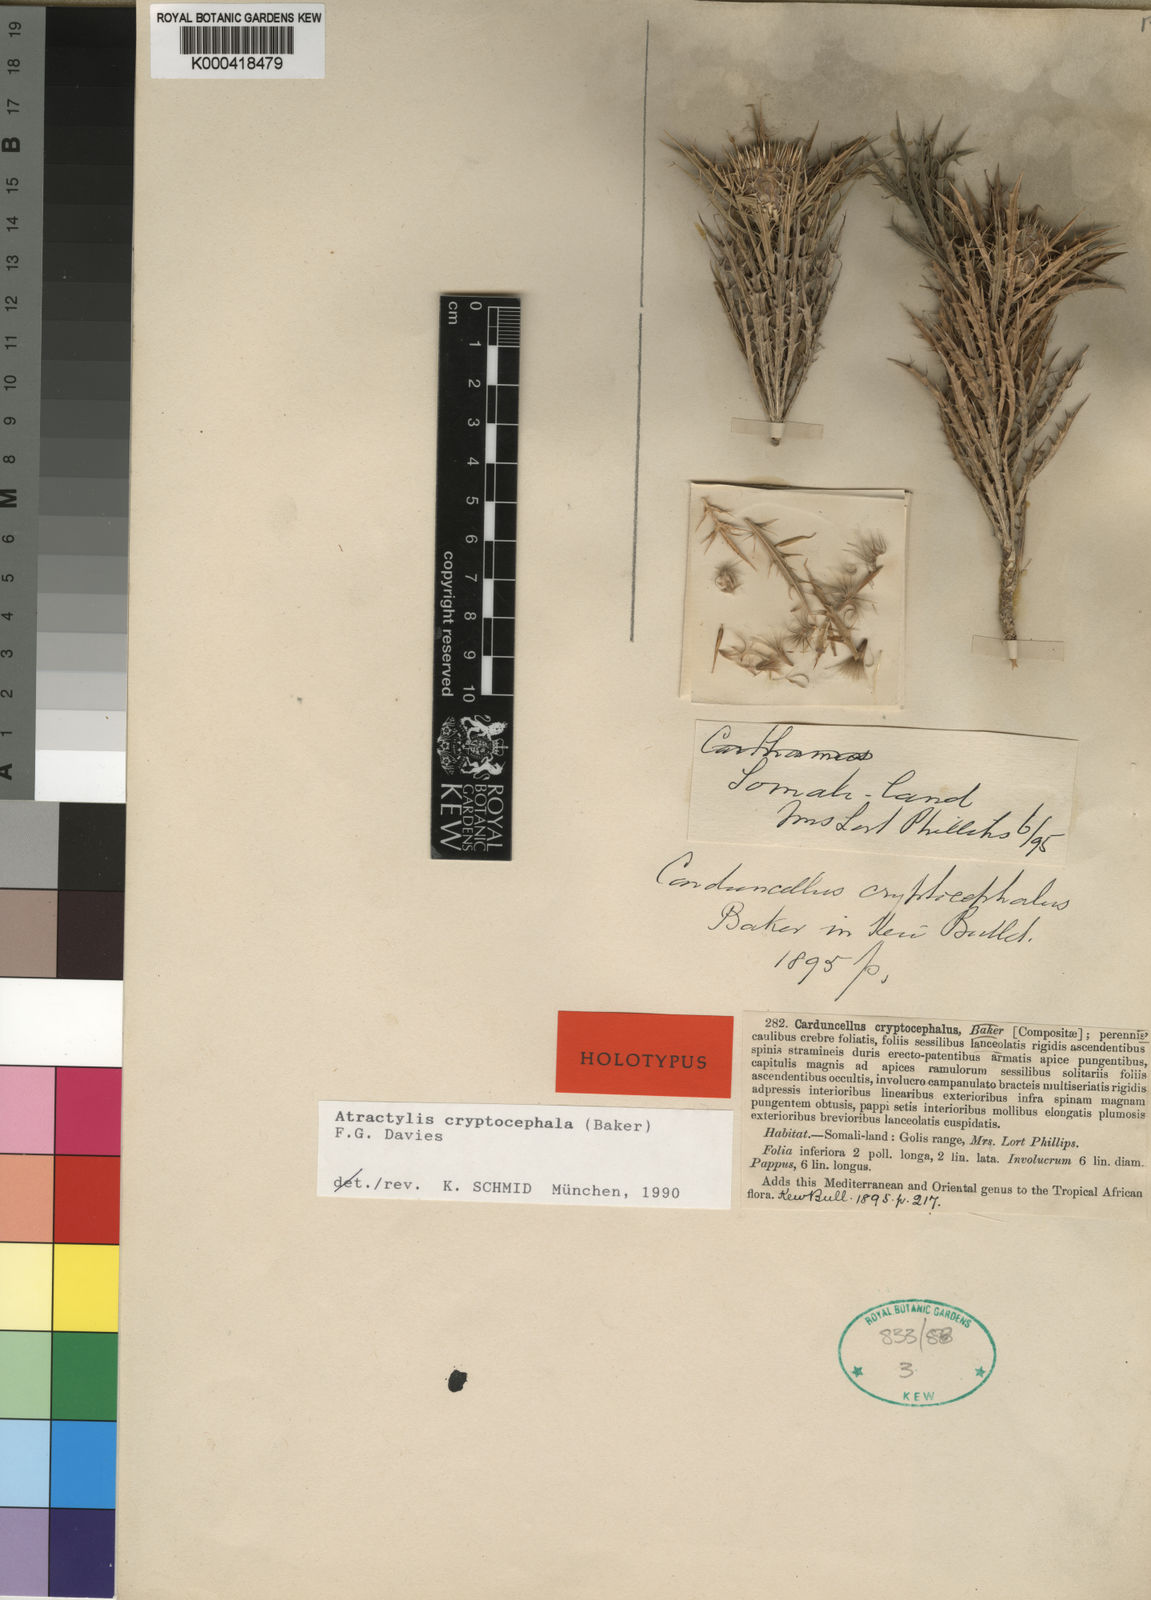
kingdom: Plantae
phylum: Tracheophyta
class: Magnoliopsida
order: Asterales
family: Asteraceae
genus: Atractylis
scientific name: Atractylis cryptocephala
